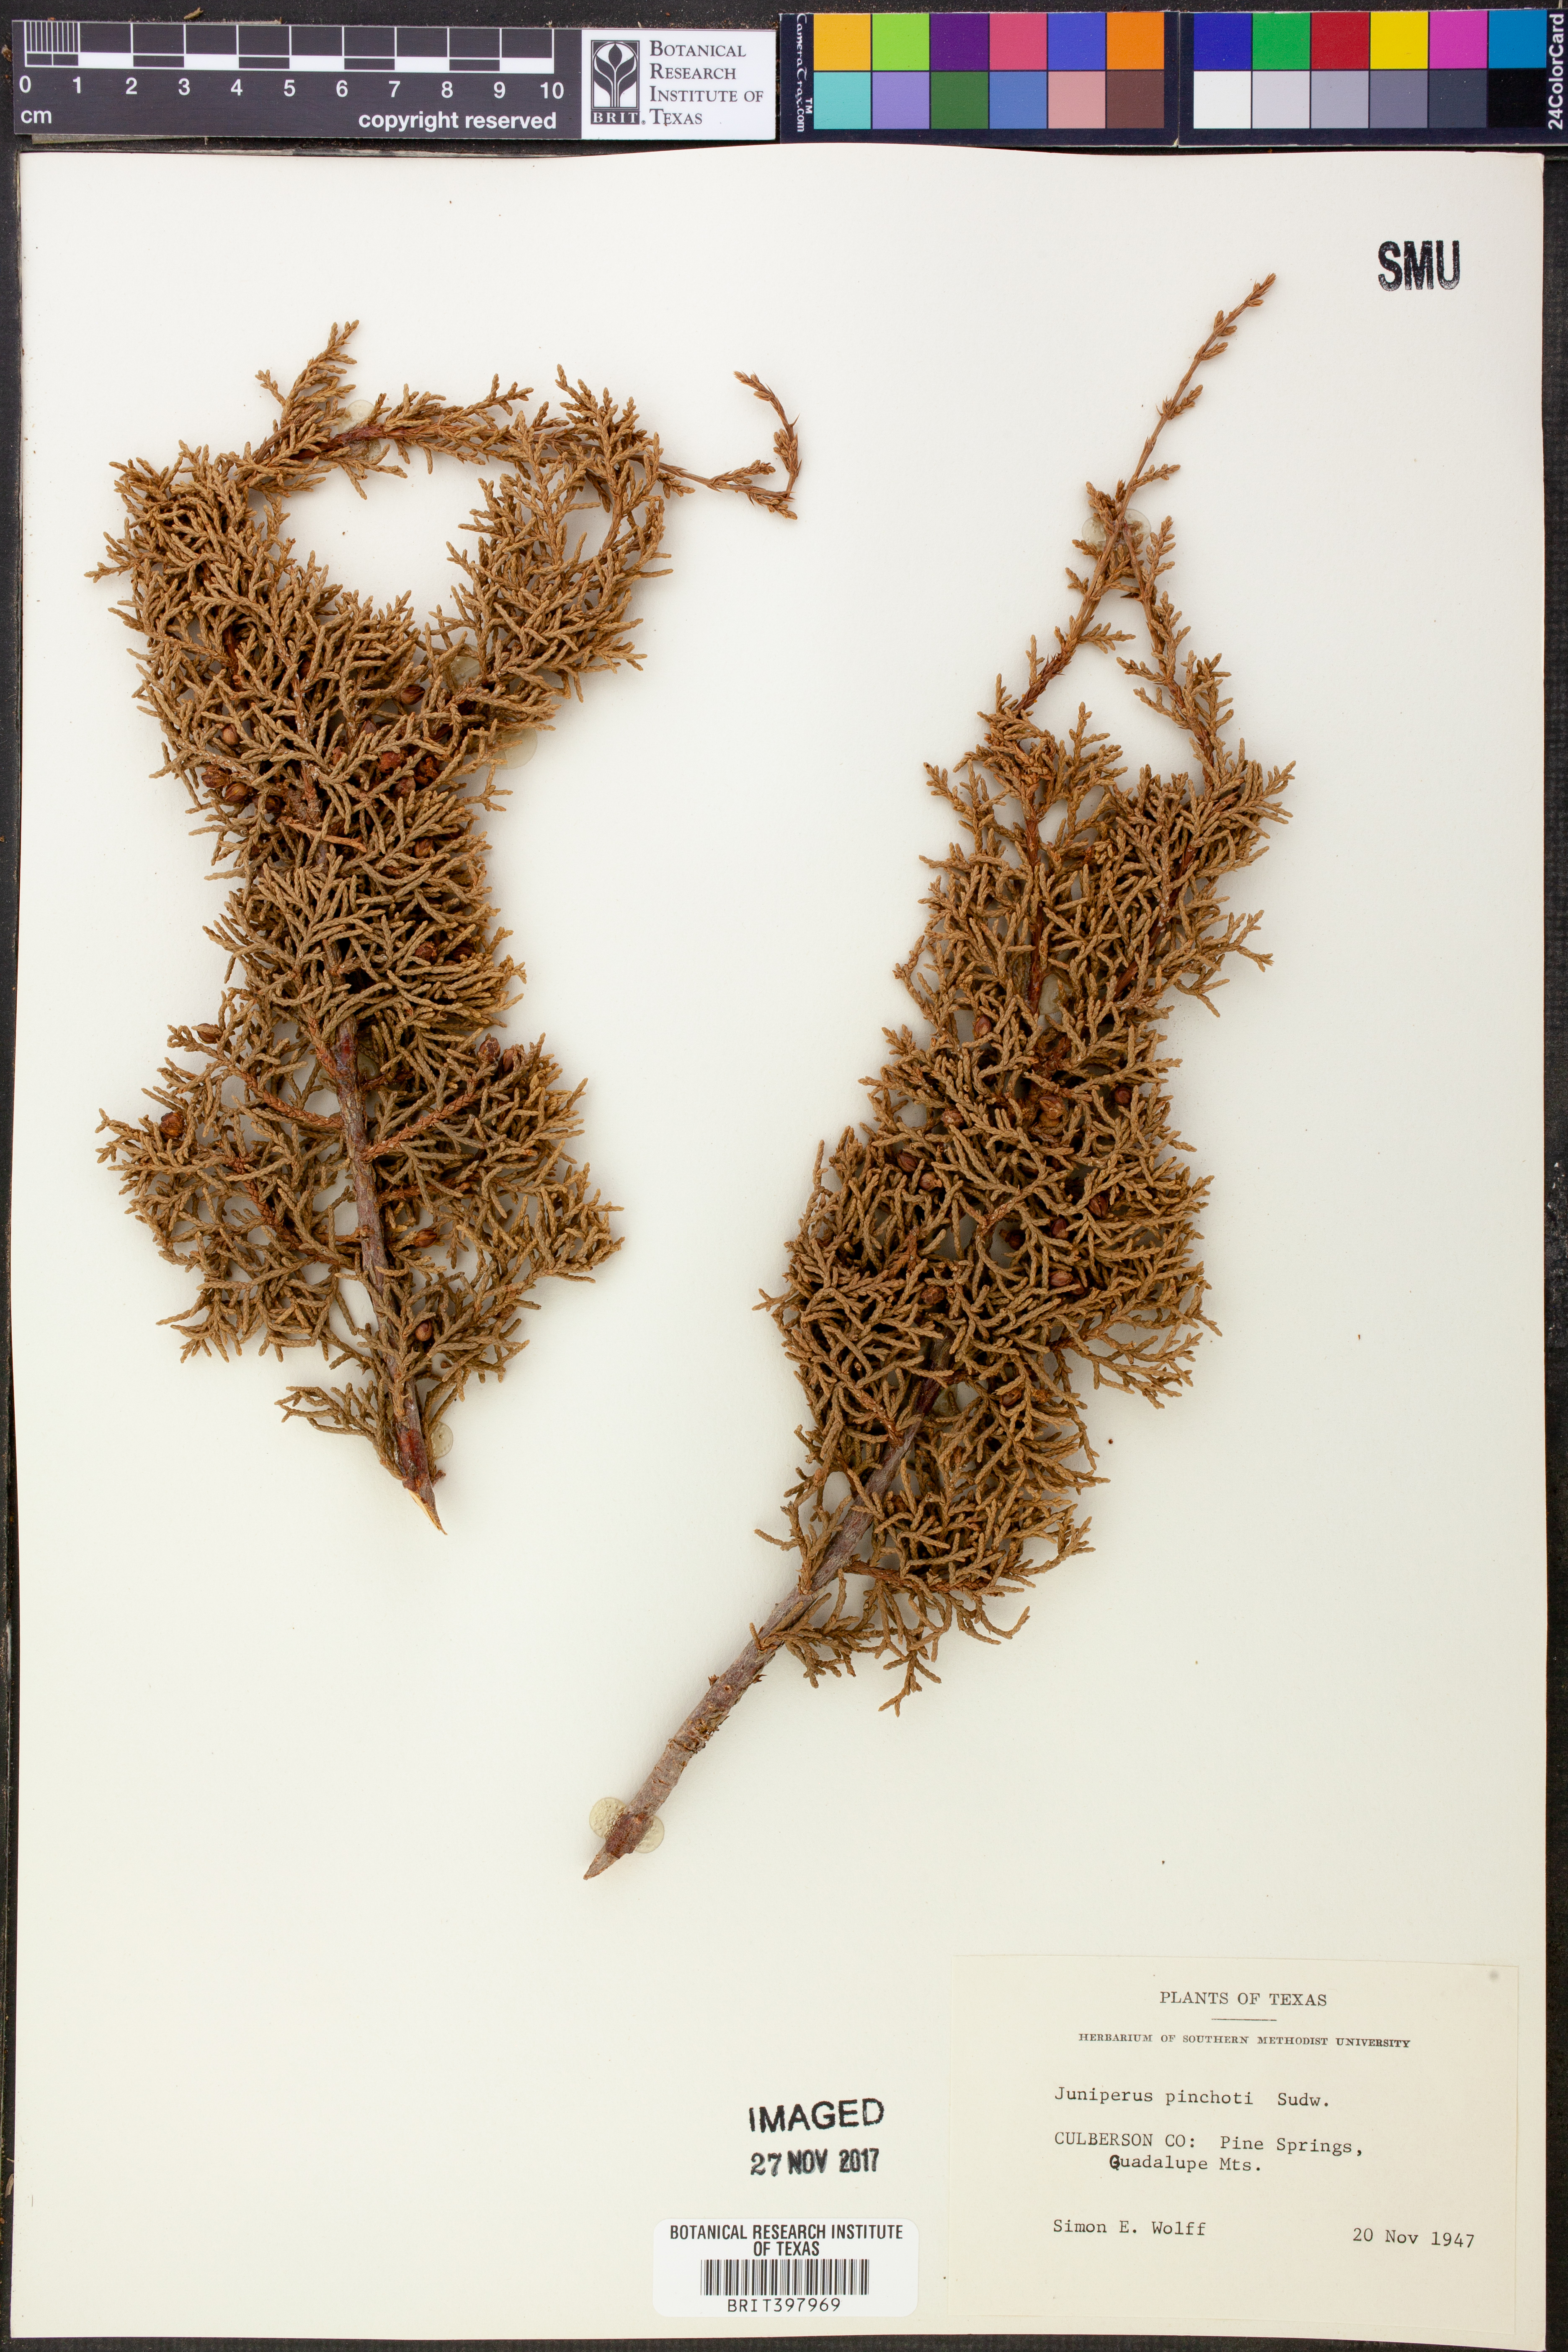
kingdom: Plantae
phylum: Tracheophyta
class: Pinopsida
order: Pinales
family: Cupressaceae
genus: Juniperus
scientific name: Juniperus pinchotii
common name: Pinchot juniper
